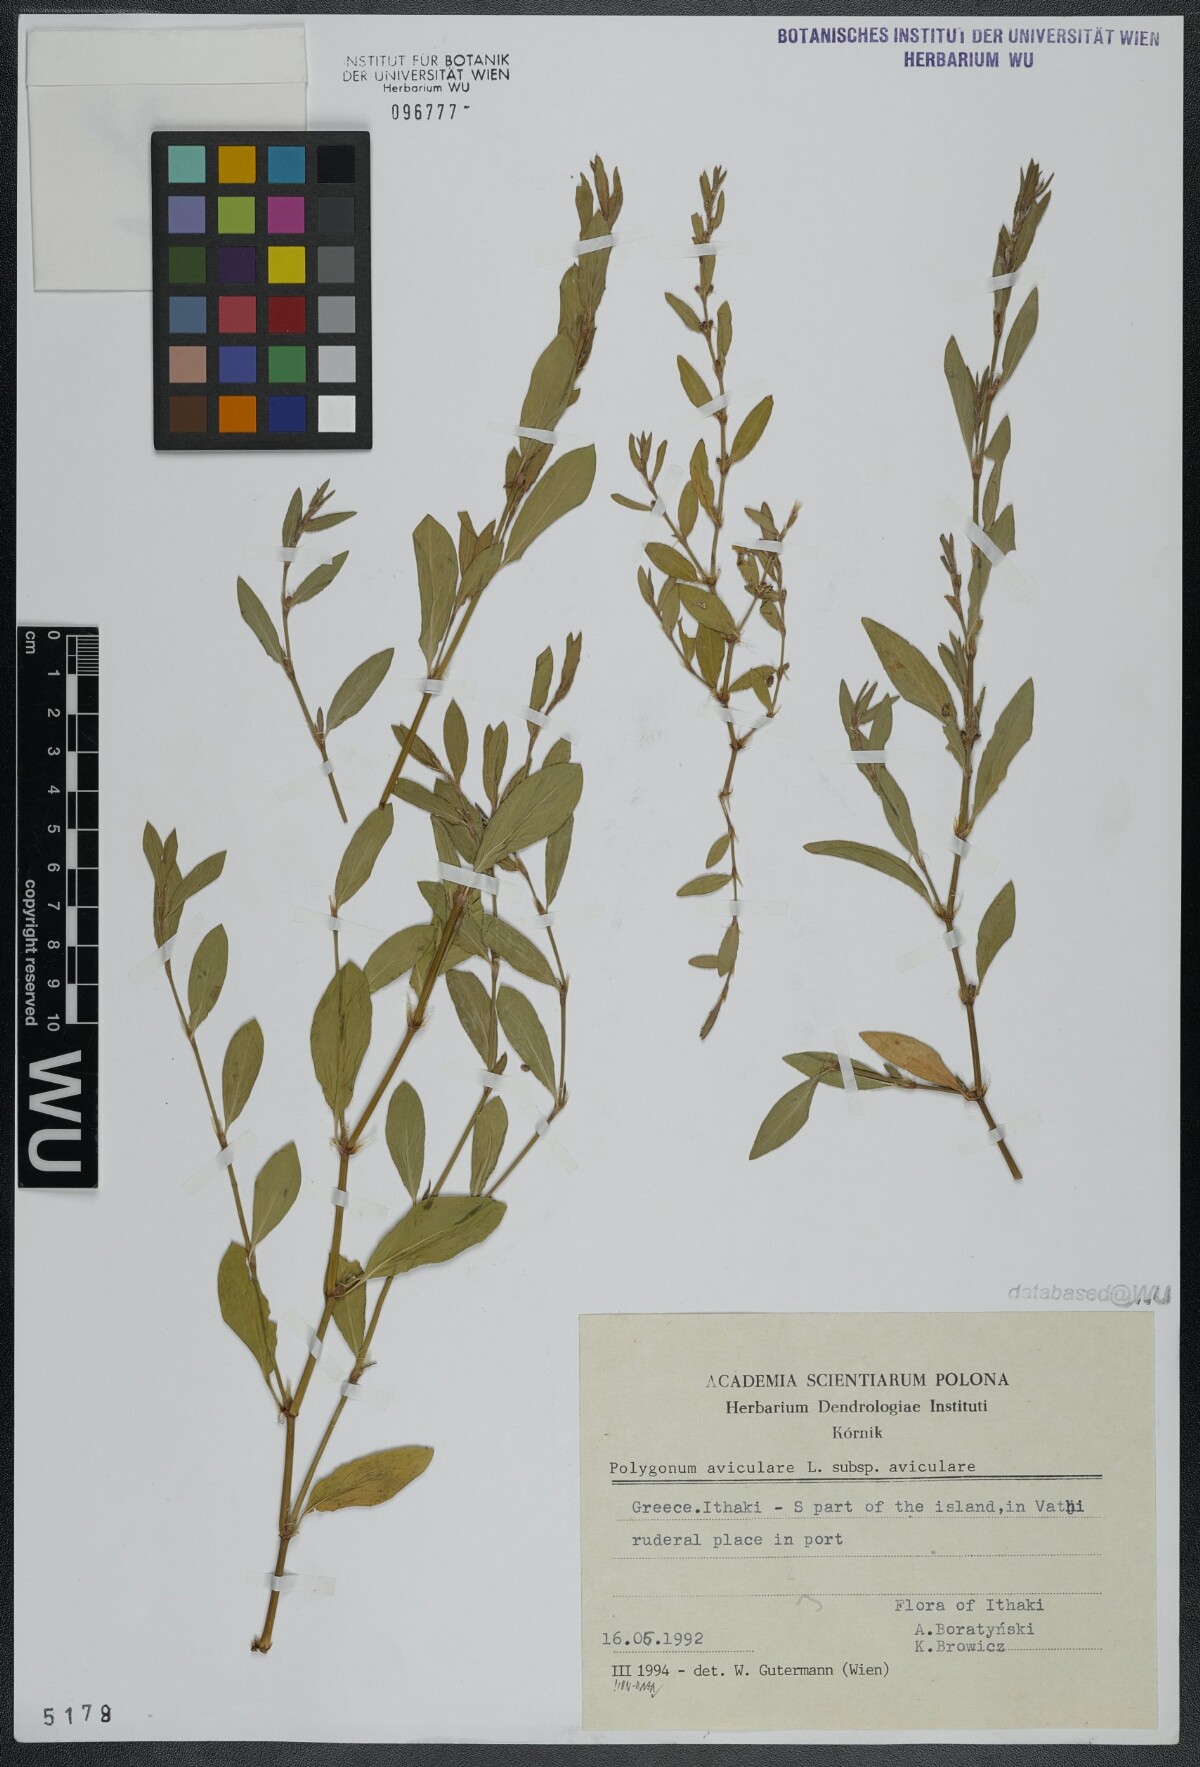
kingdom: Plantae
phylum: Tracheophyta
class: Magnoliopsida
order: Caryophyllales
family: Polygonaceae
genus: Polygonum
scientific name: Polygonum aviculare
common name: Prostrate knotweed
